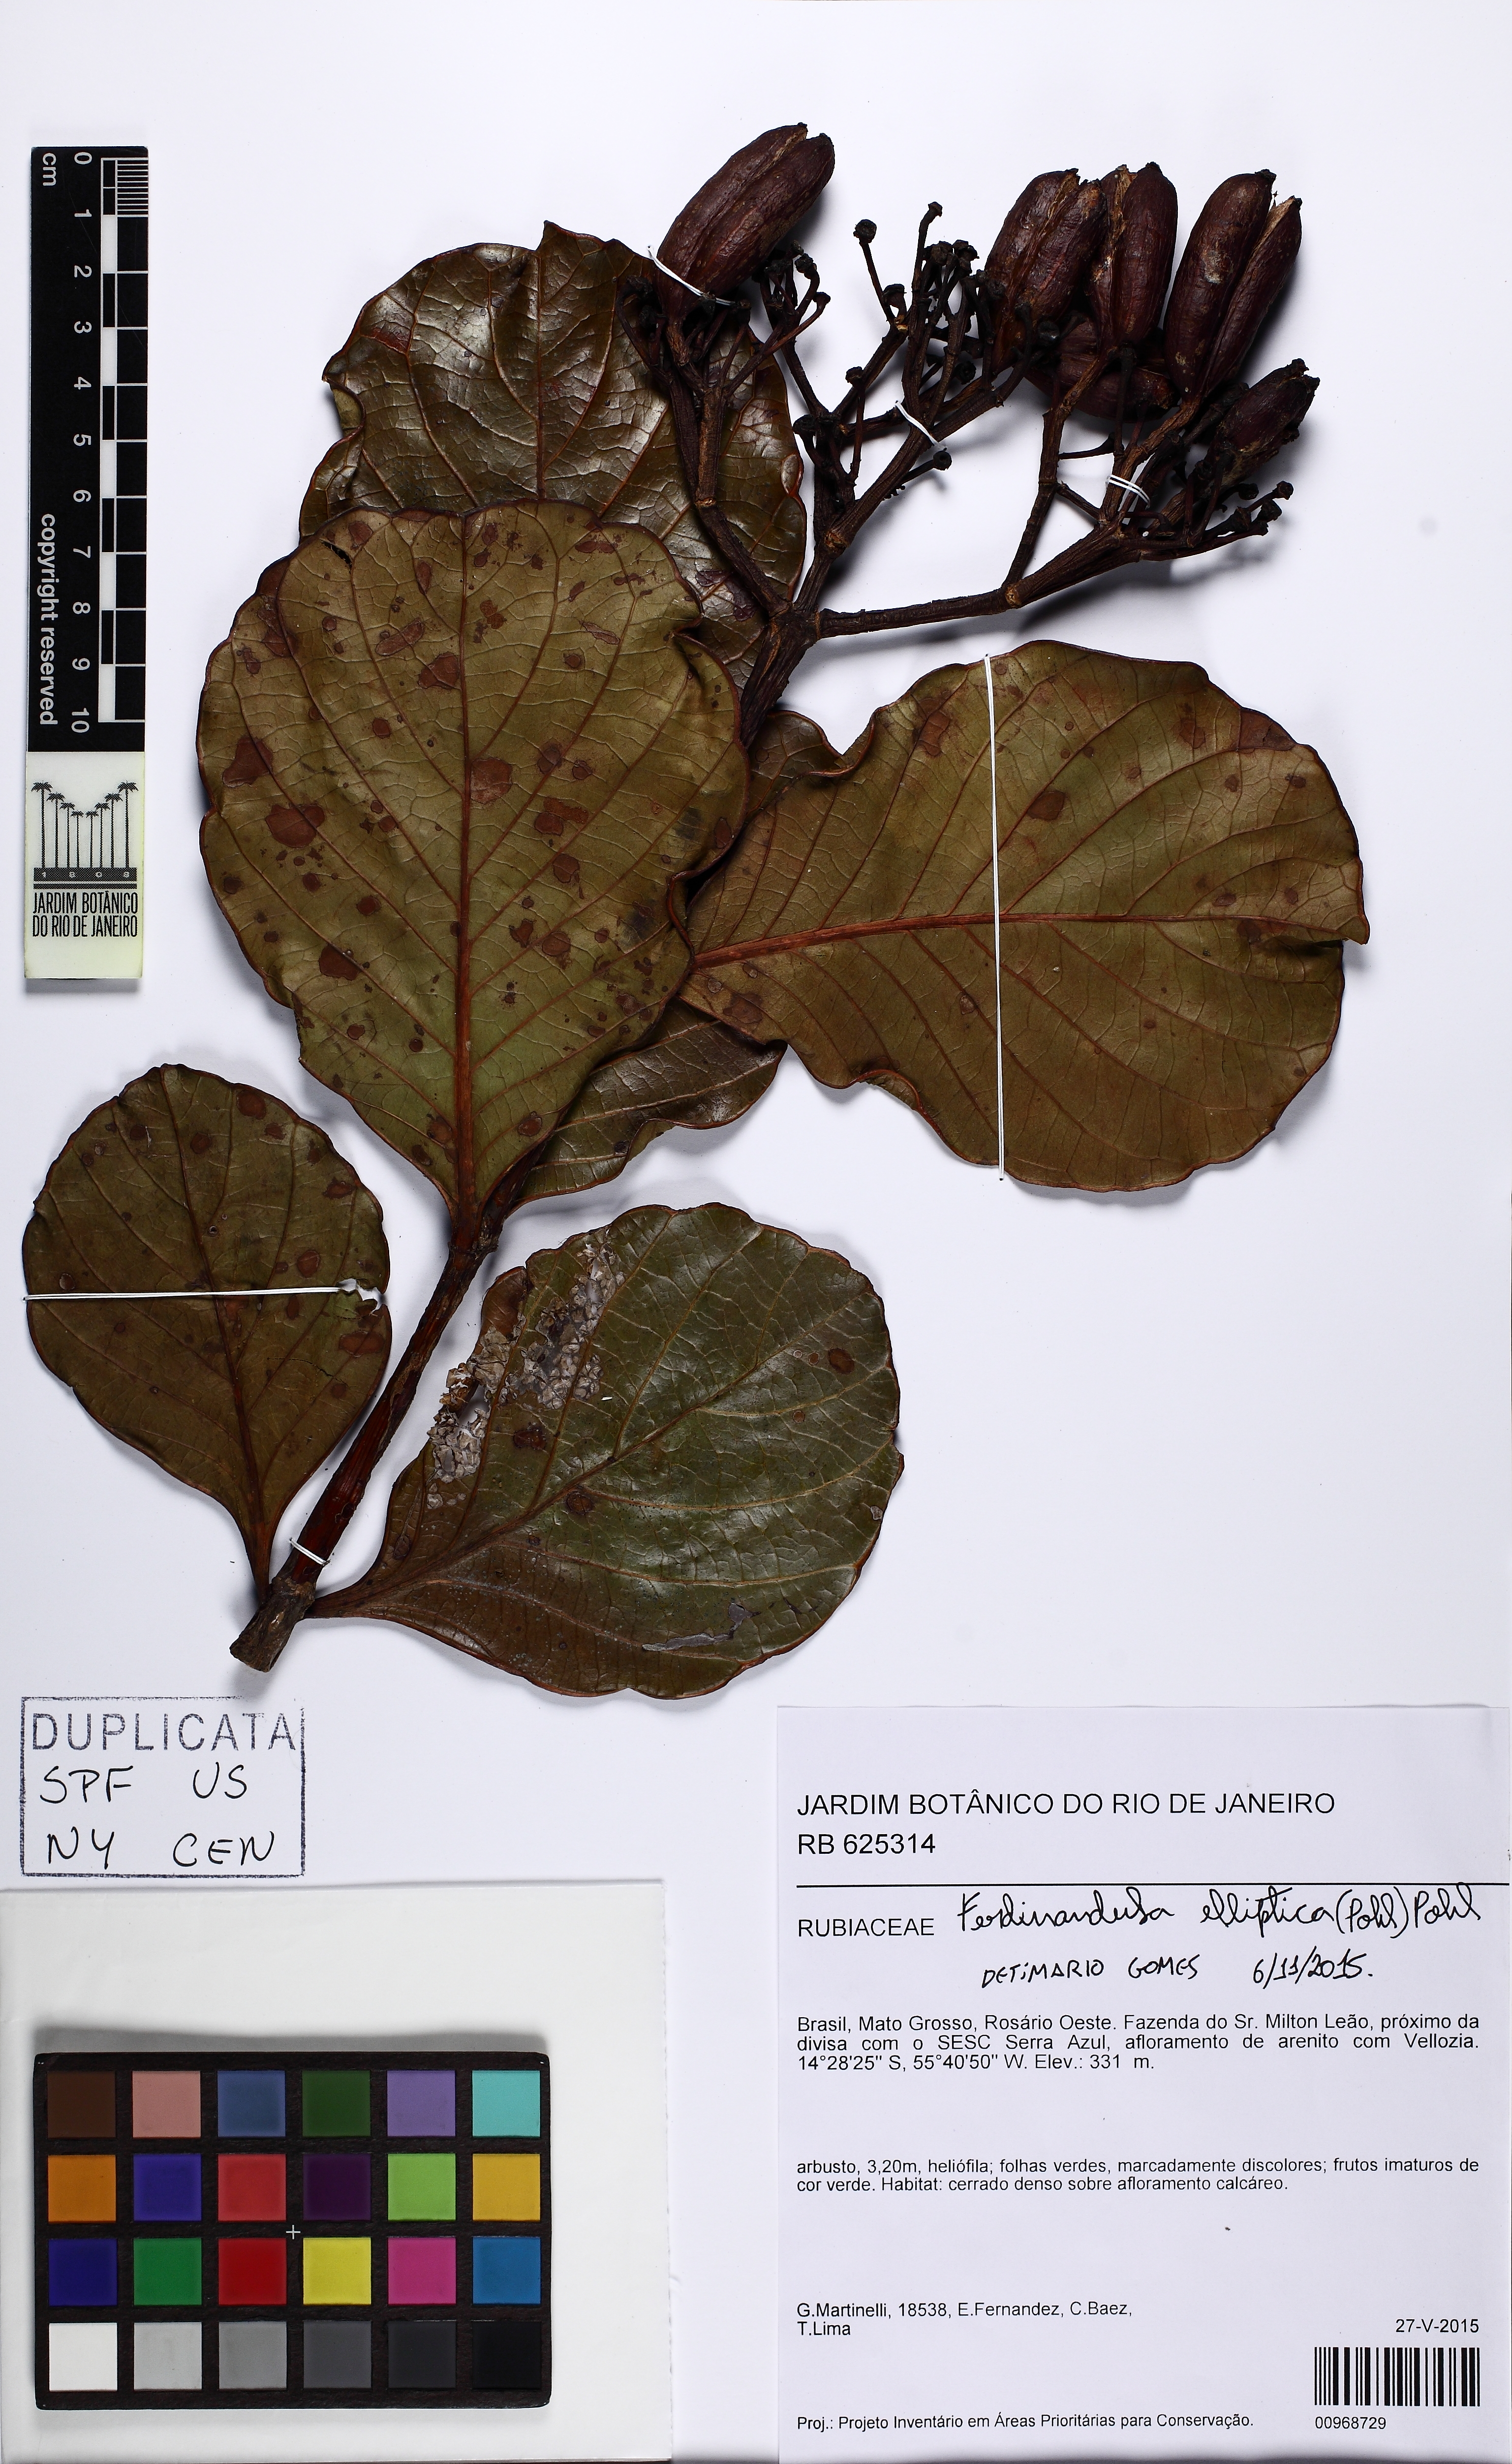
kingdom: Plantae
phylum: Tracheophyta
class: Magnoliopsida
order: Gentianales
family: Rubiaceae
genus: Ferdinandusa
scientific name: Ferdinandusa elliptica
